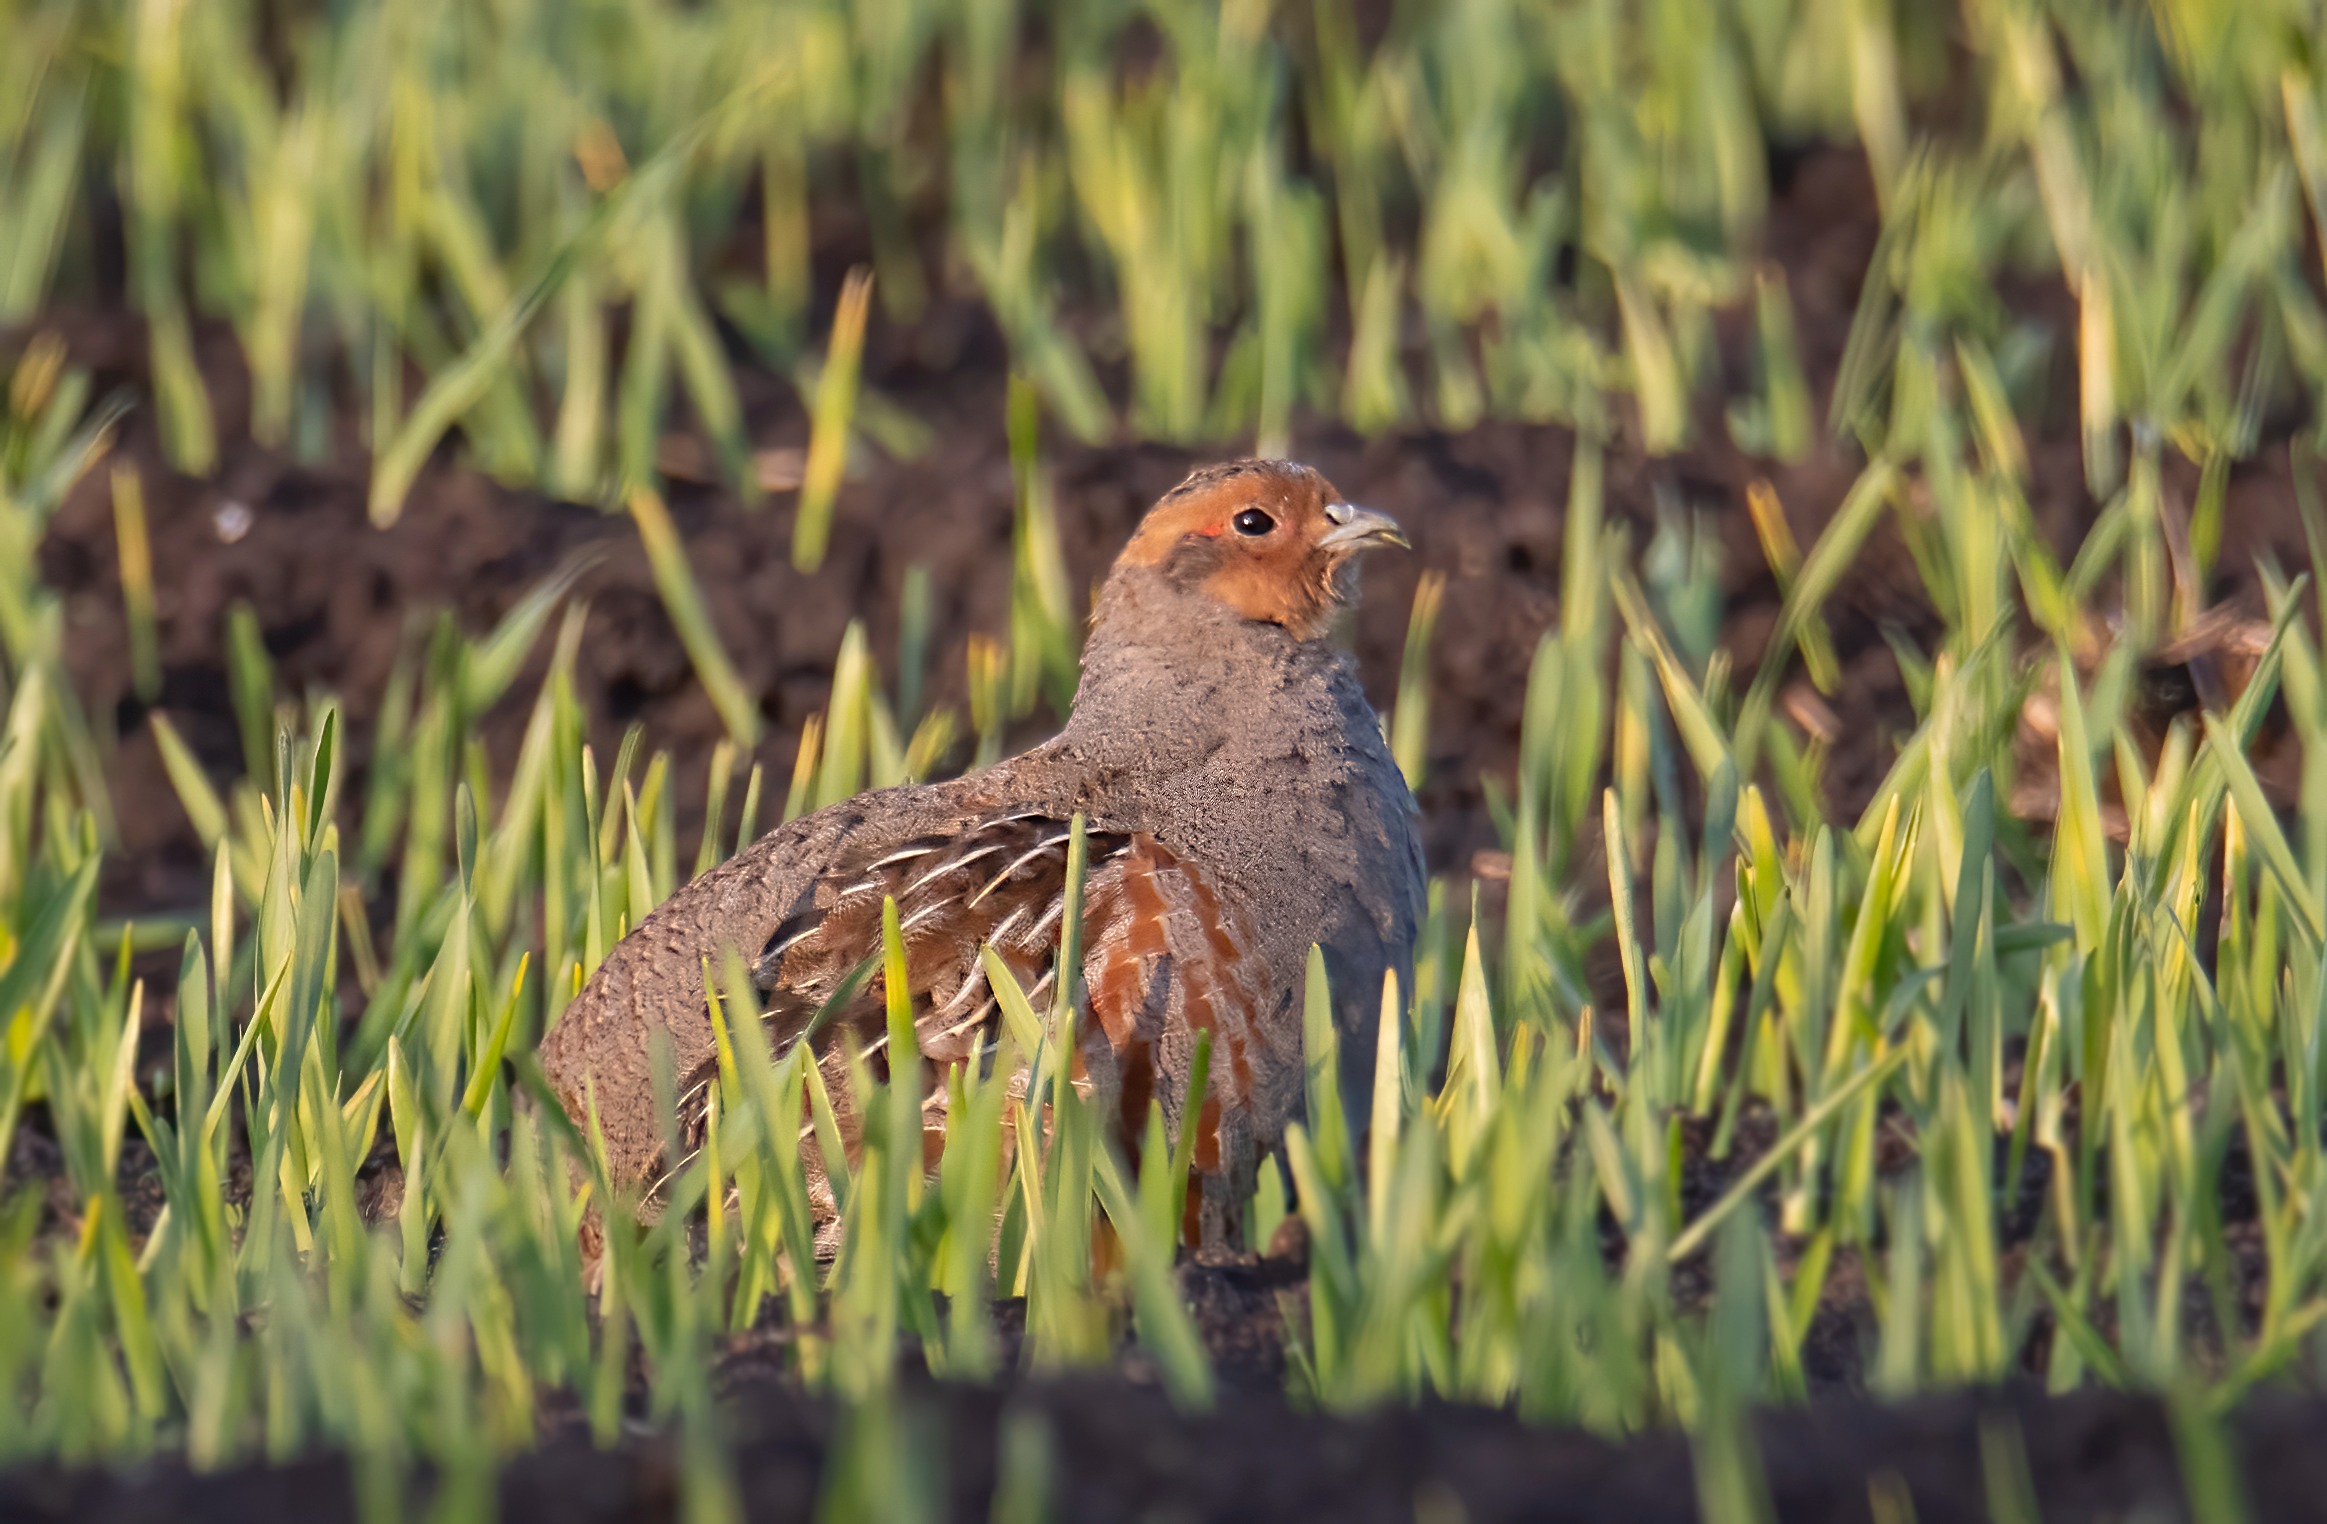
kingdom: Animalia
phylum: Chordata
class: Aves
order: Galliformes
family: Phasianidae
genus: Perdix
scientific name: Perdix perdix
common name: Agerhøne
